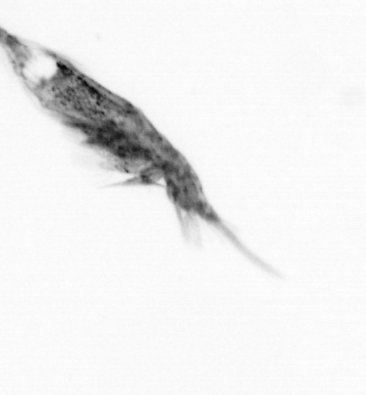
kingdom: Animalia
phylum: Arthropoda
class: Copepoda
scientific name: Copepoda
